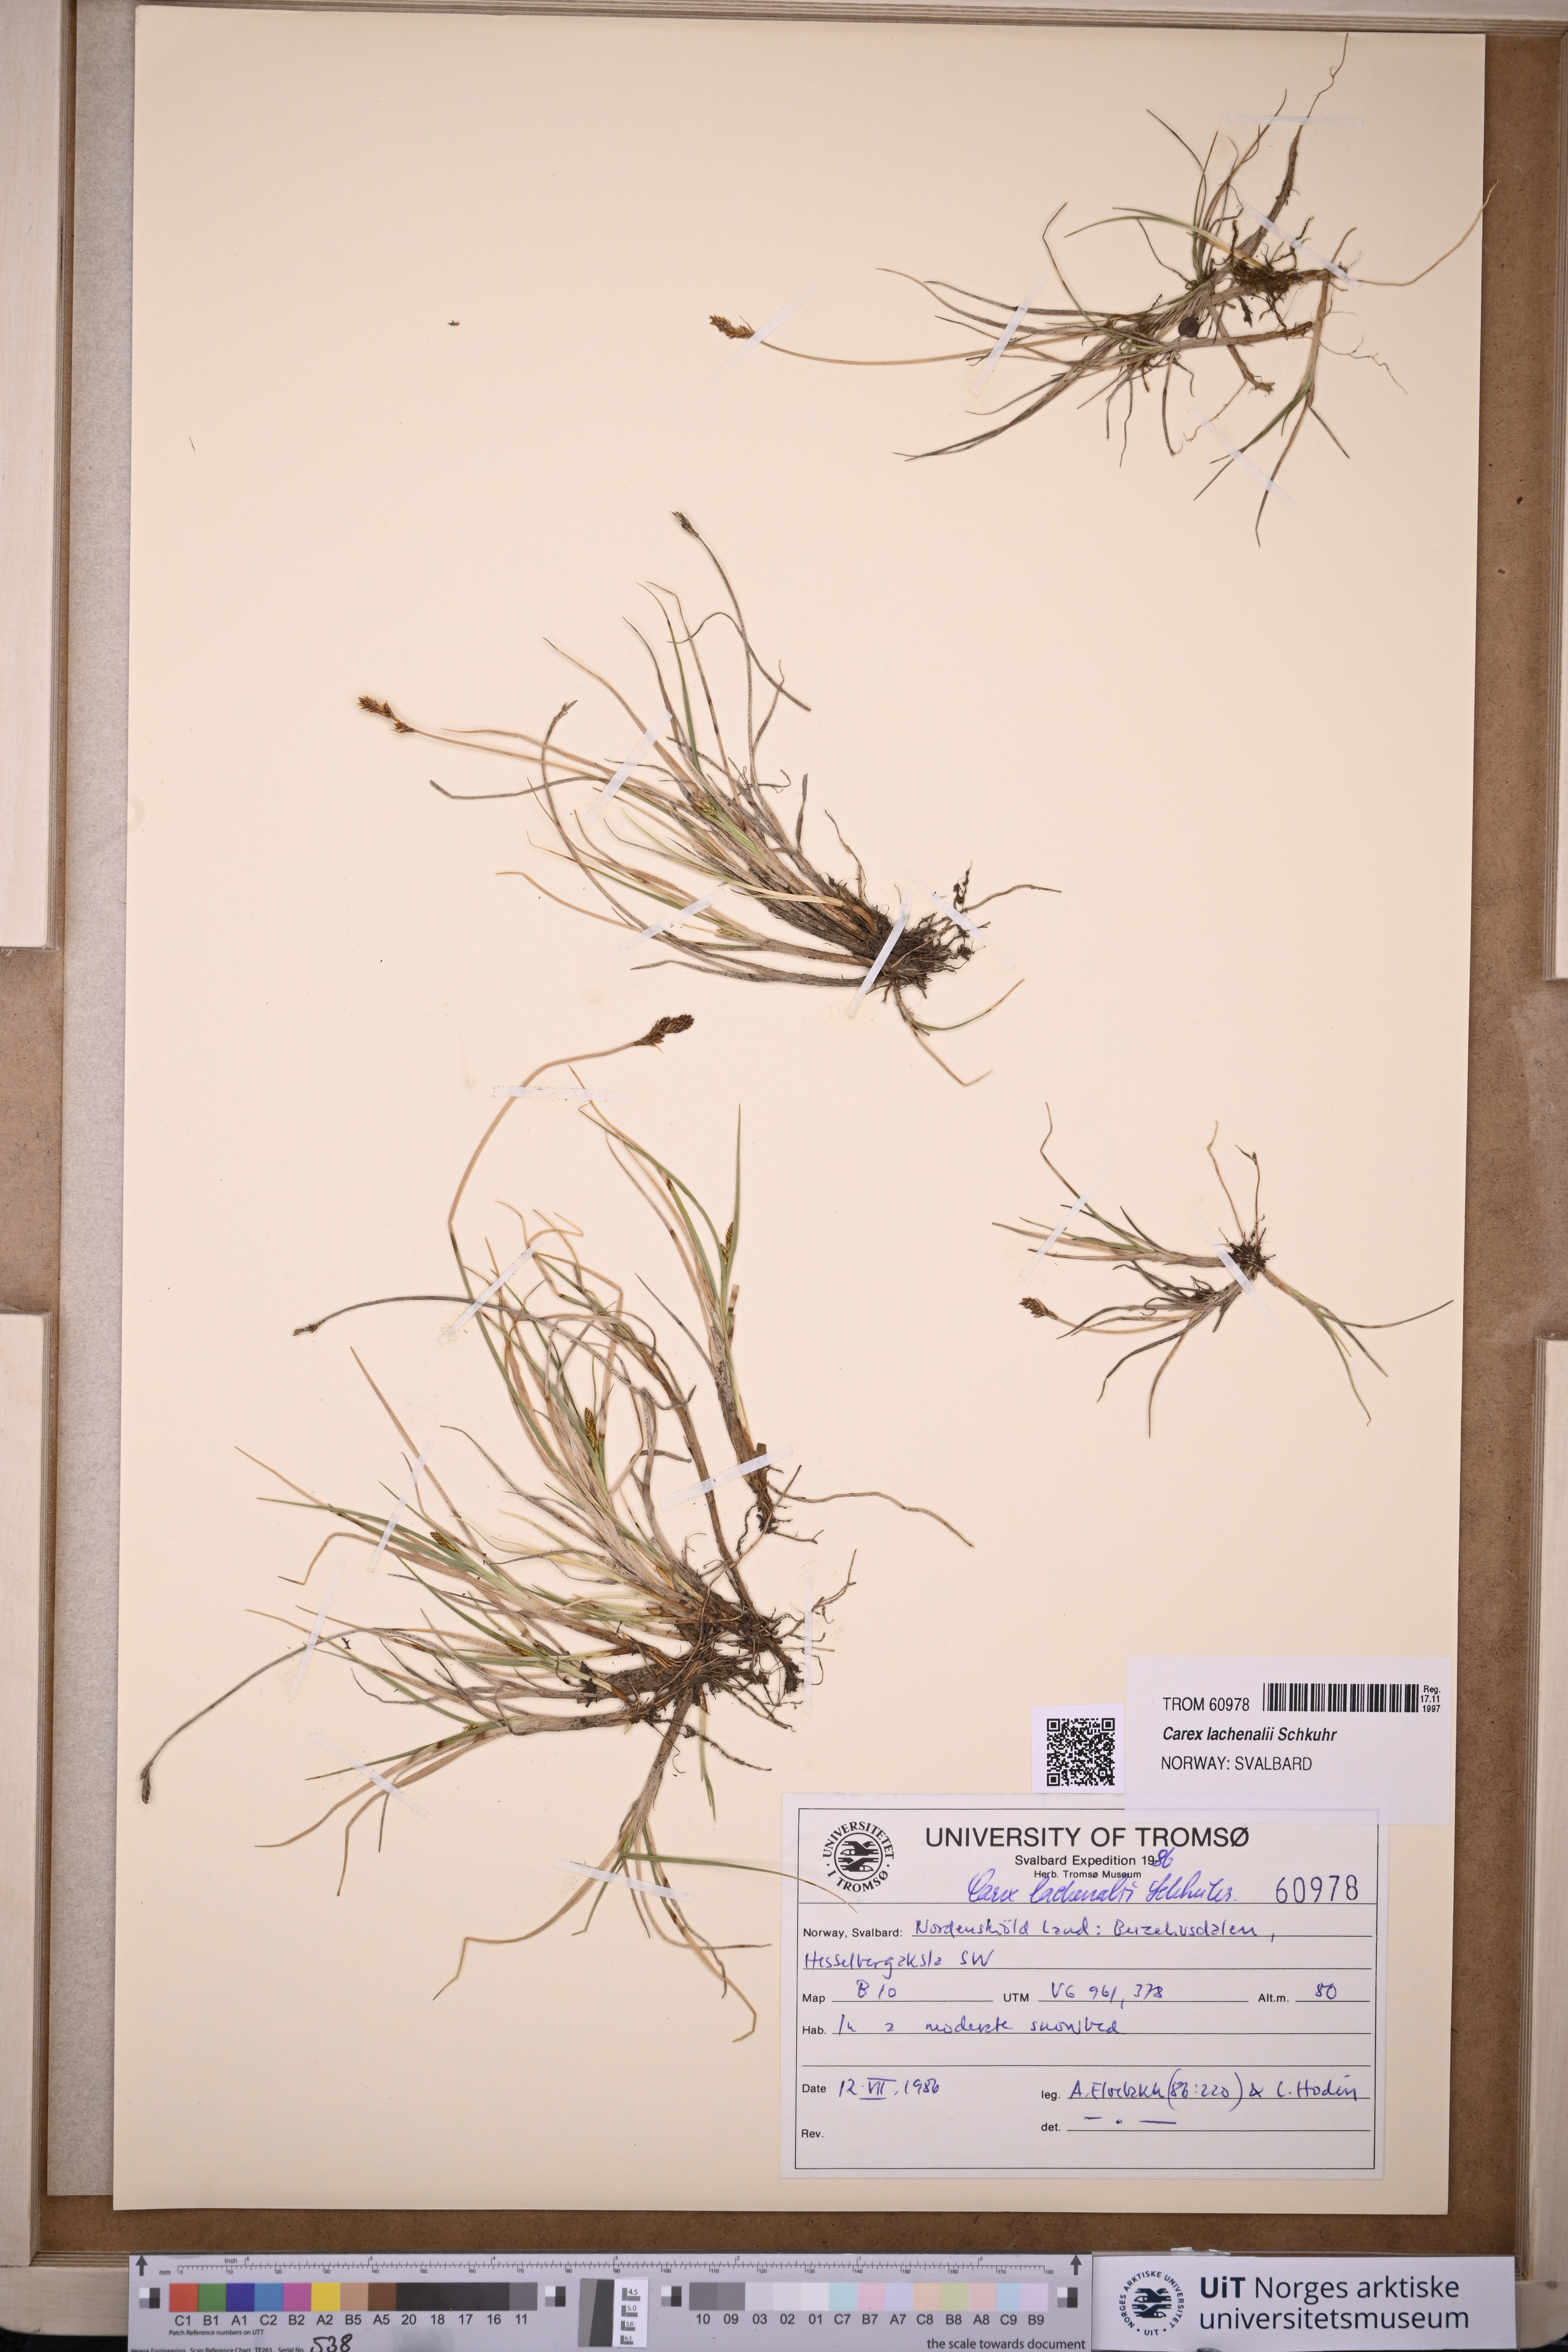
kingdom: Plantae
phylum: Tracheophyta
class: Liliopsida
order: Poales
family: Cyperaceae
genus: Carex
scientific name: Carex lachenalii
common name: Hare's-foot sedge
